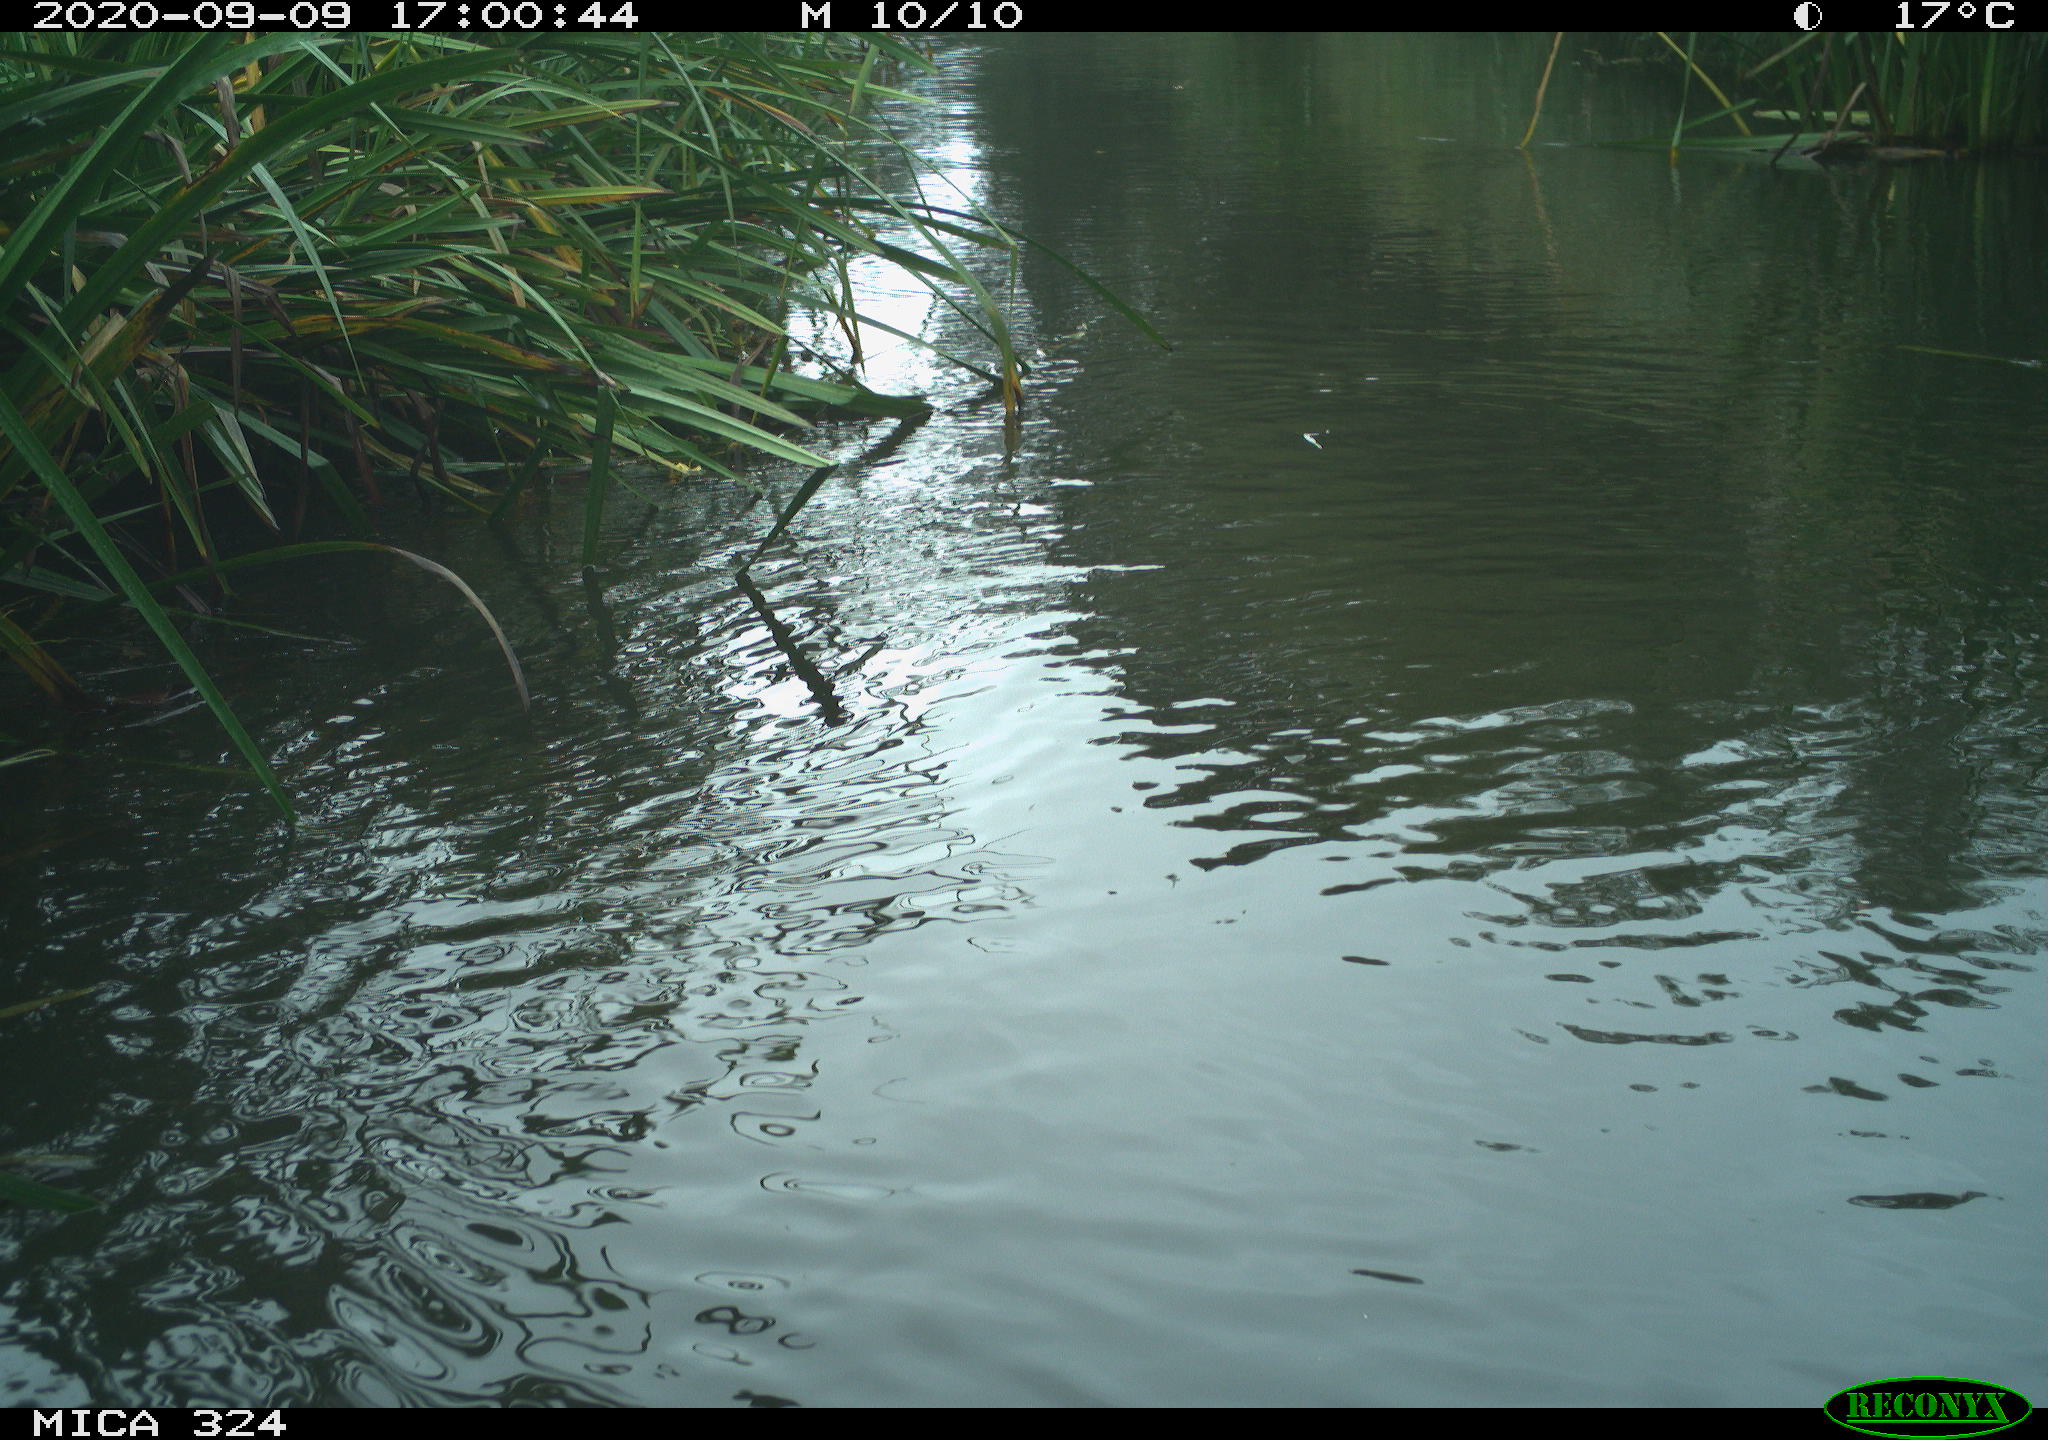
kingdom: Animalia
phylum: Chordata
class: Mammalia
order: Rodentia
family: Cricetidae
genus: Ondatra
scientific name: Ondatra zibethicus
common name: Muskrat
